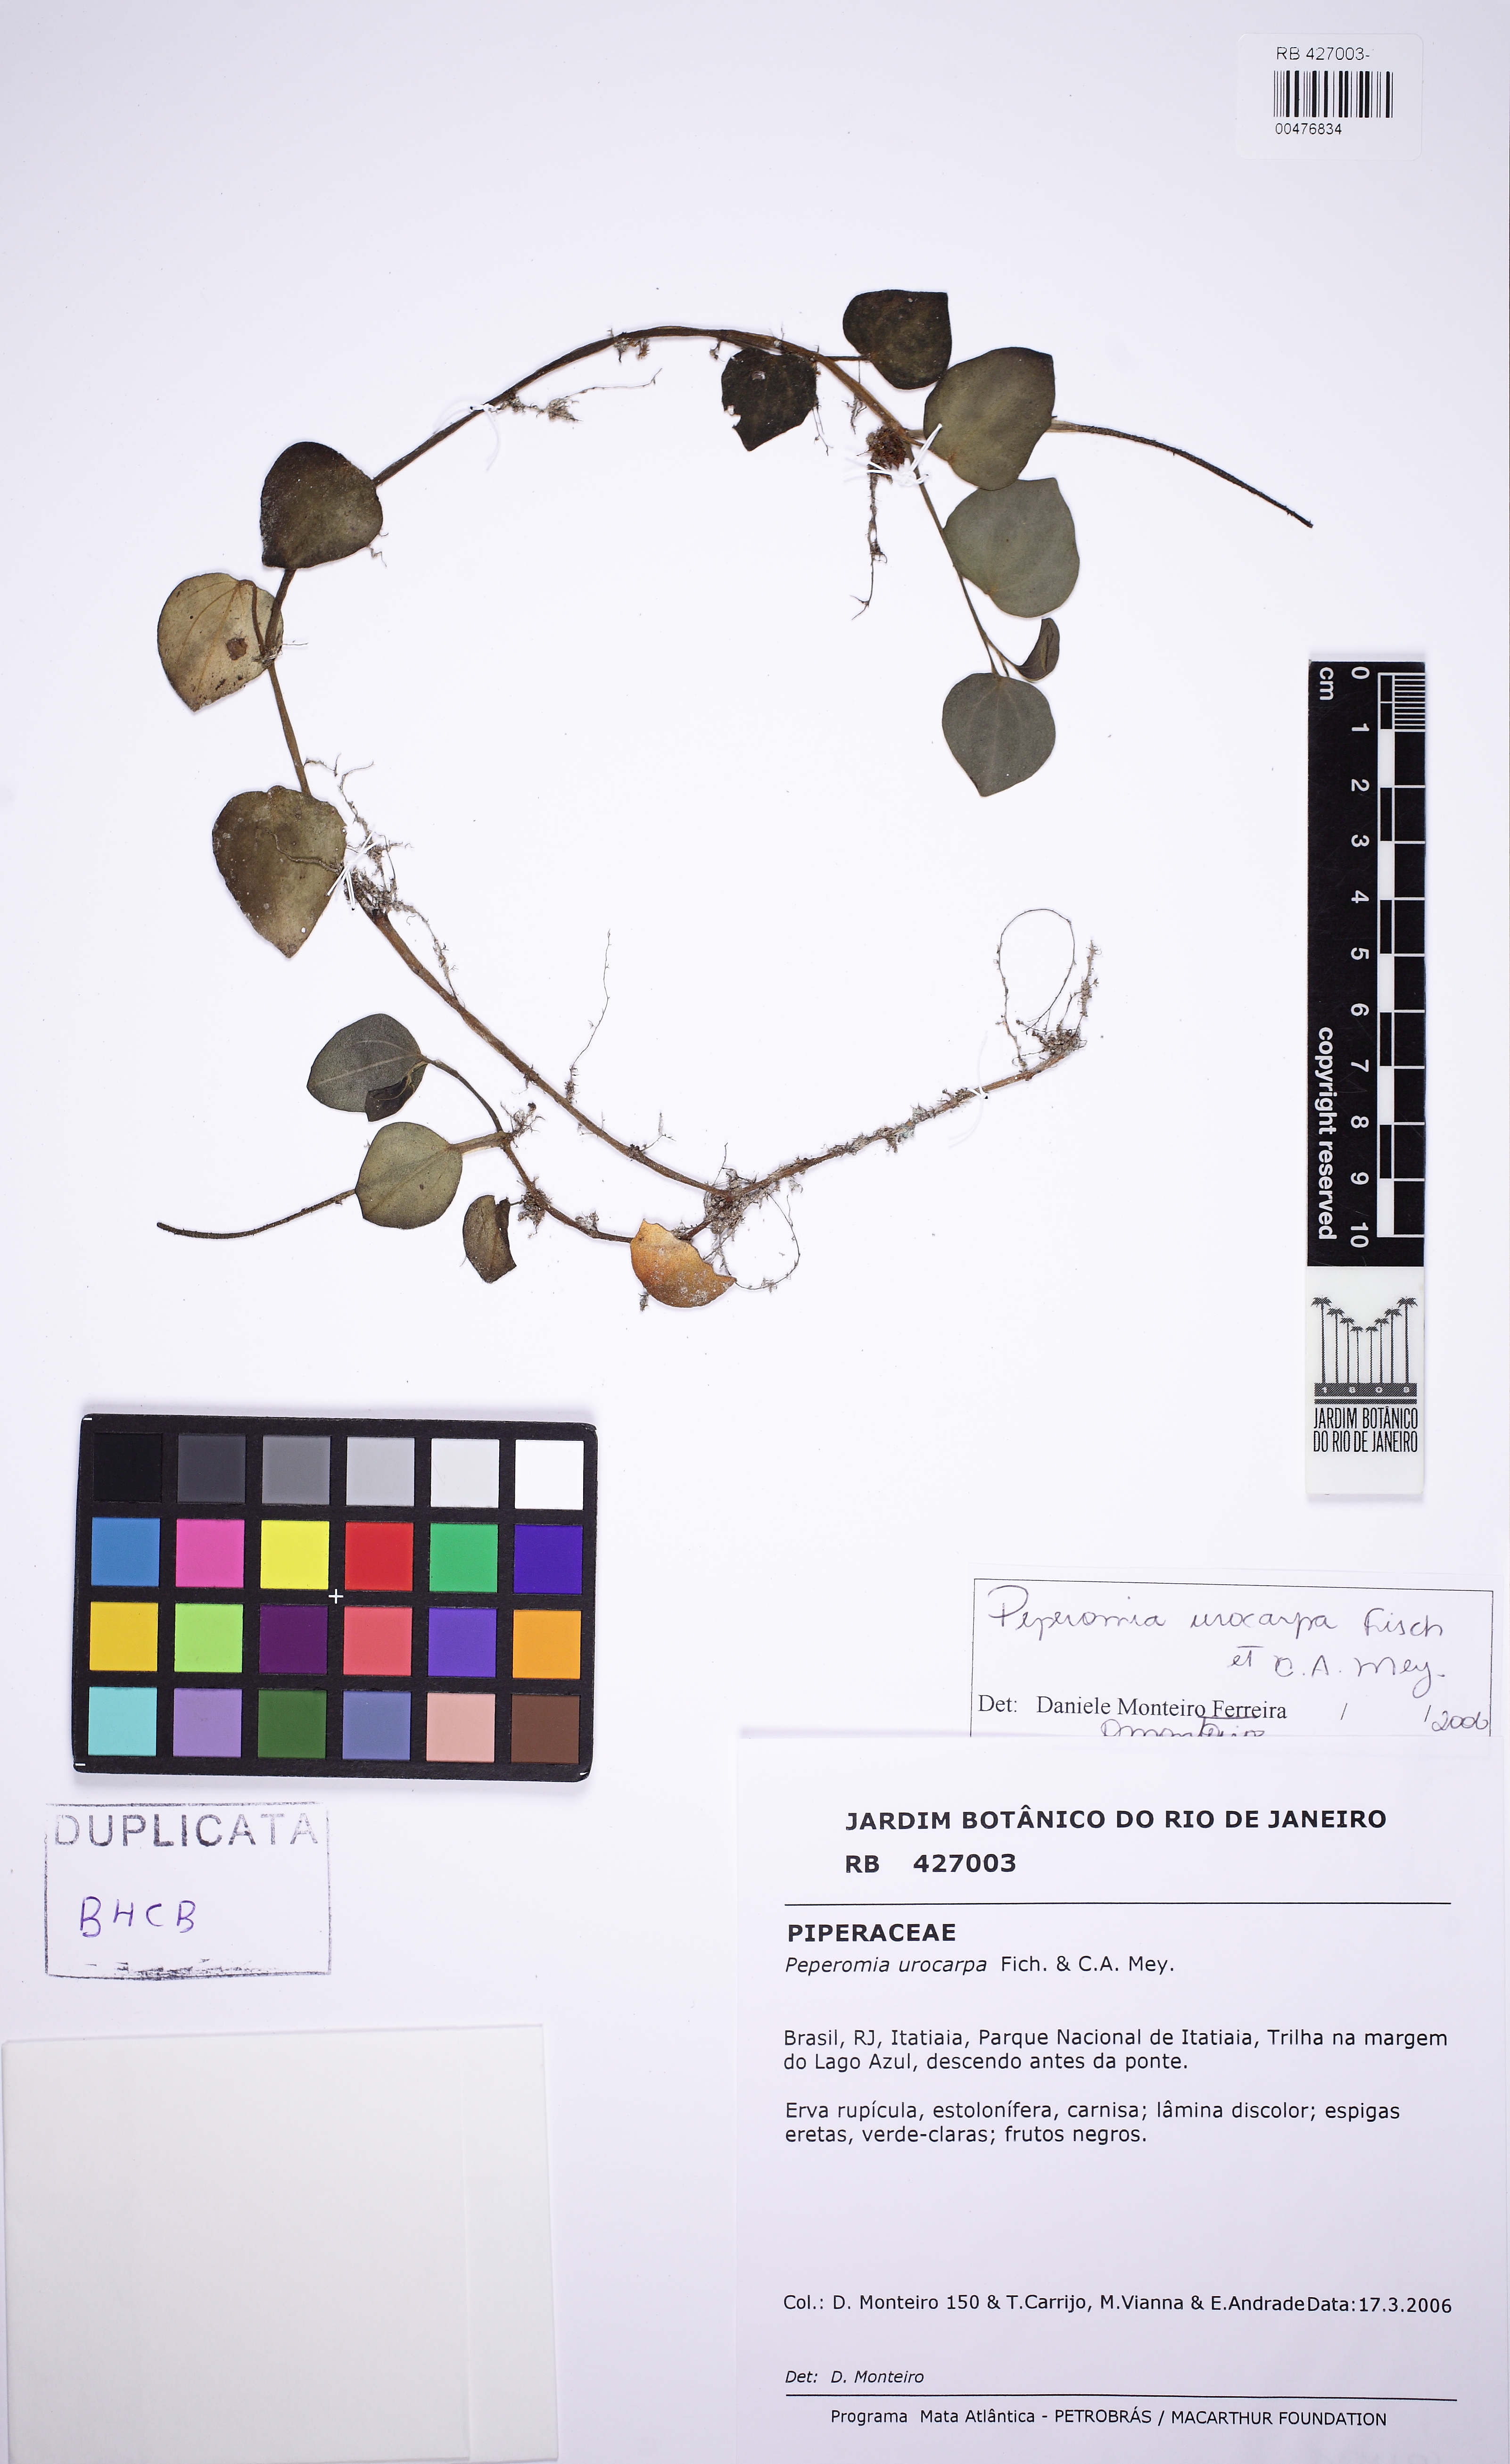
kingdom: Plantae
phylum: Tracheophyta
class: Magnoliopsida
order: Piperales
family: Piperaceae
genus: Peperomia
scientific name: Peperomia urocarpa
